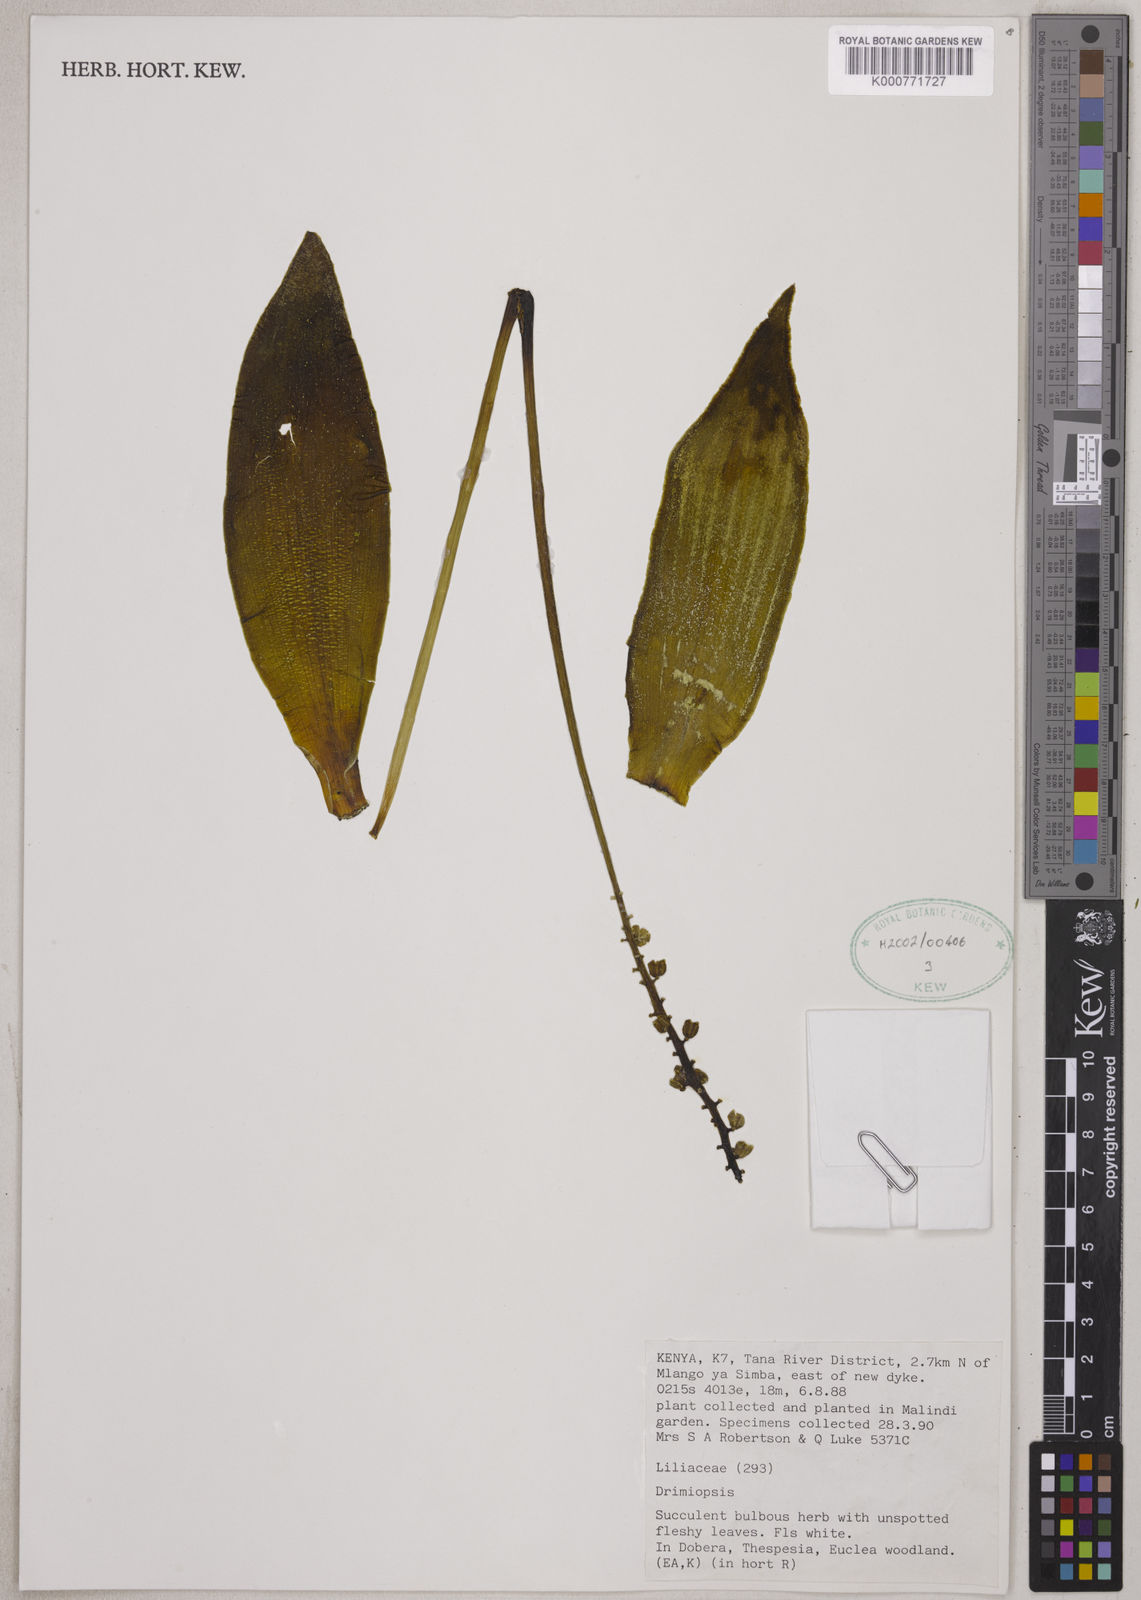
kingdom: Plantae
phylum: Tracheophyta
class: Liliopsida
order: Asparagales
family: Asparagaceae
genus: Drimiopsis
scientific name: Drimiopsis
